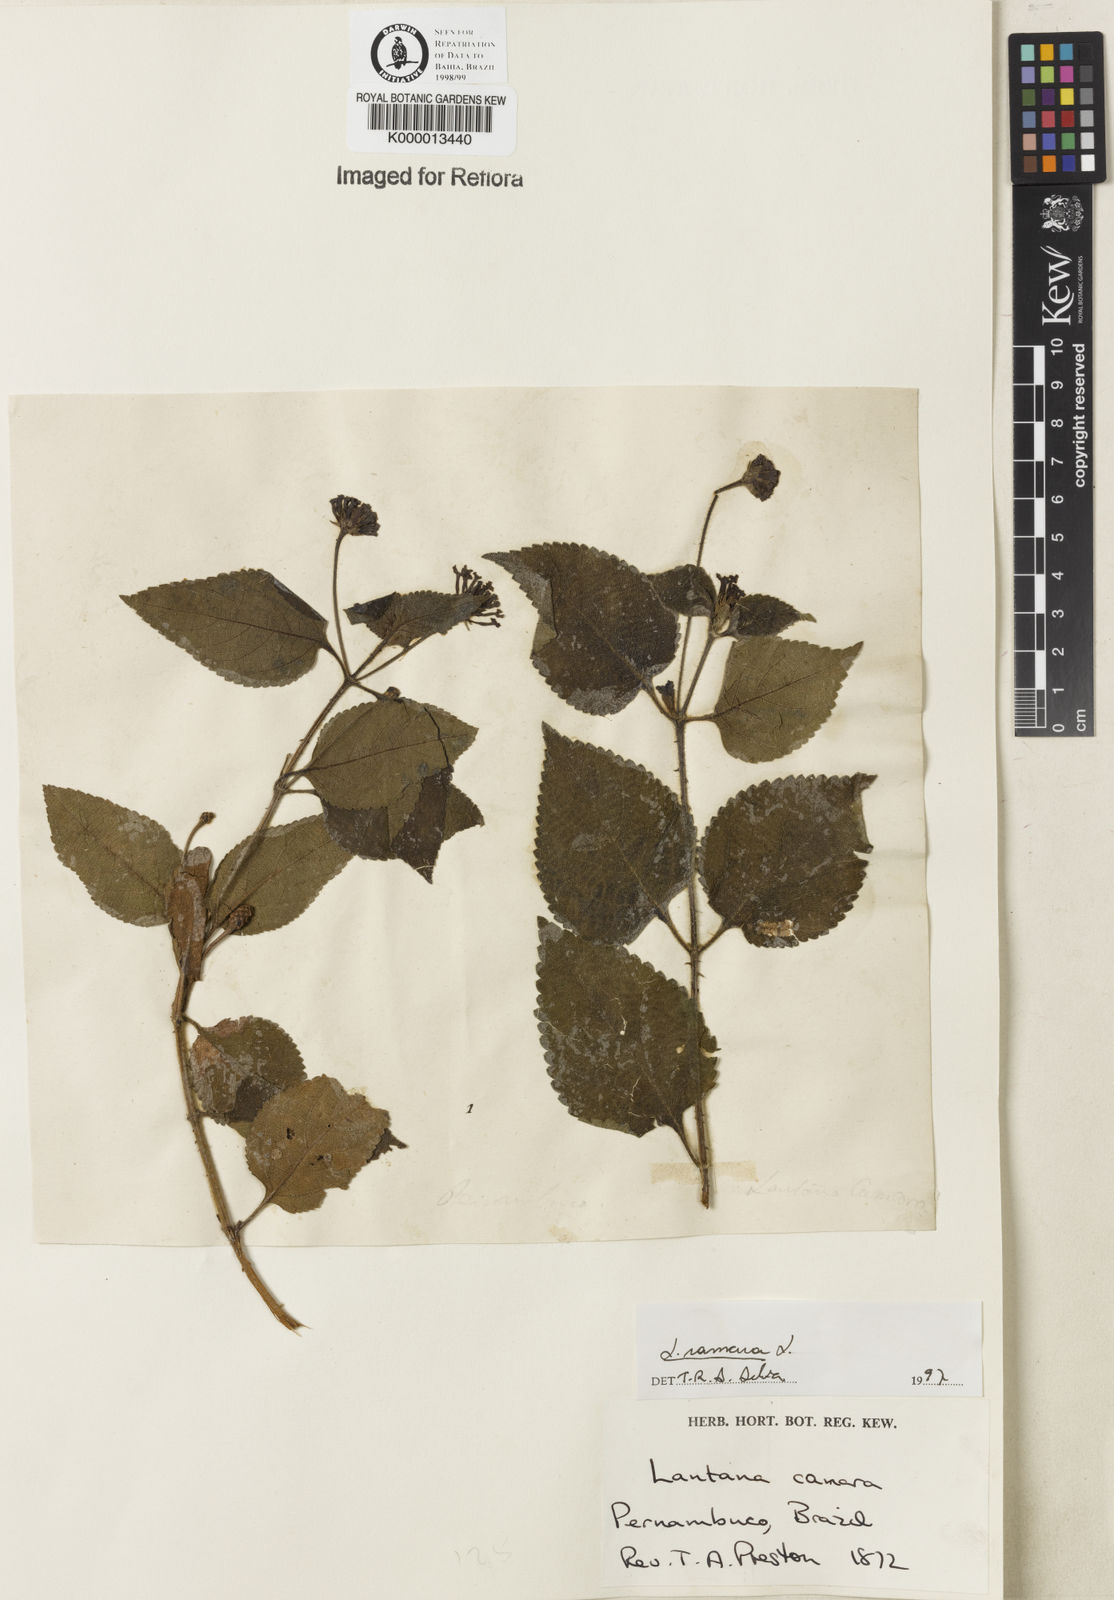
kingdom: Plantae
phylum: Tracheophyta
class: Magnoliopsida
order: Lamiales
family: Verbenaceae
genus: Lantana
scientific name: Lantana camara
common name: Lantana
